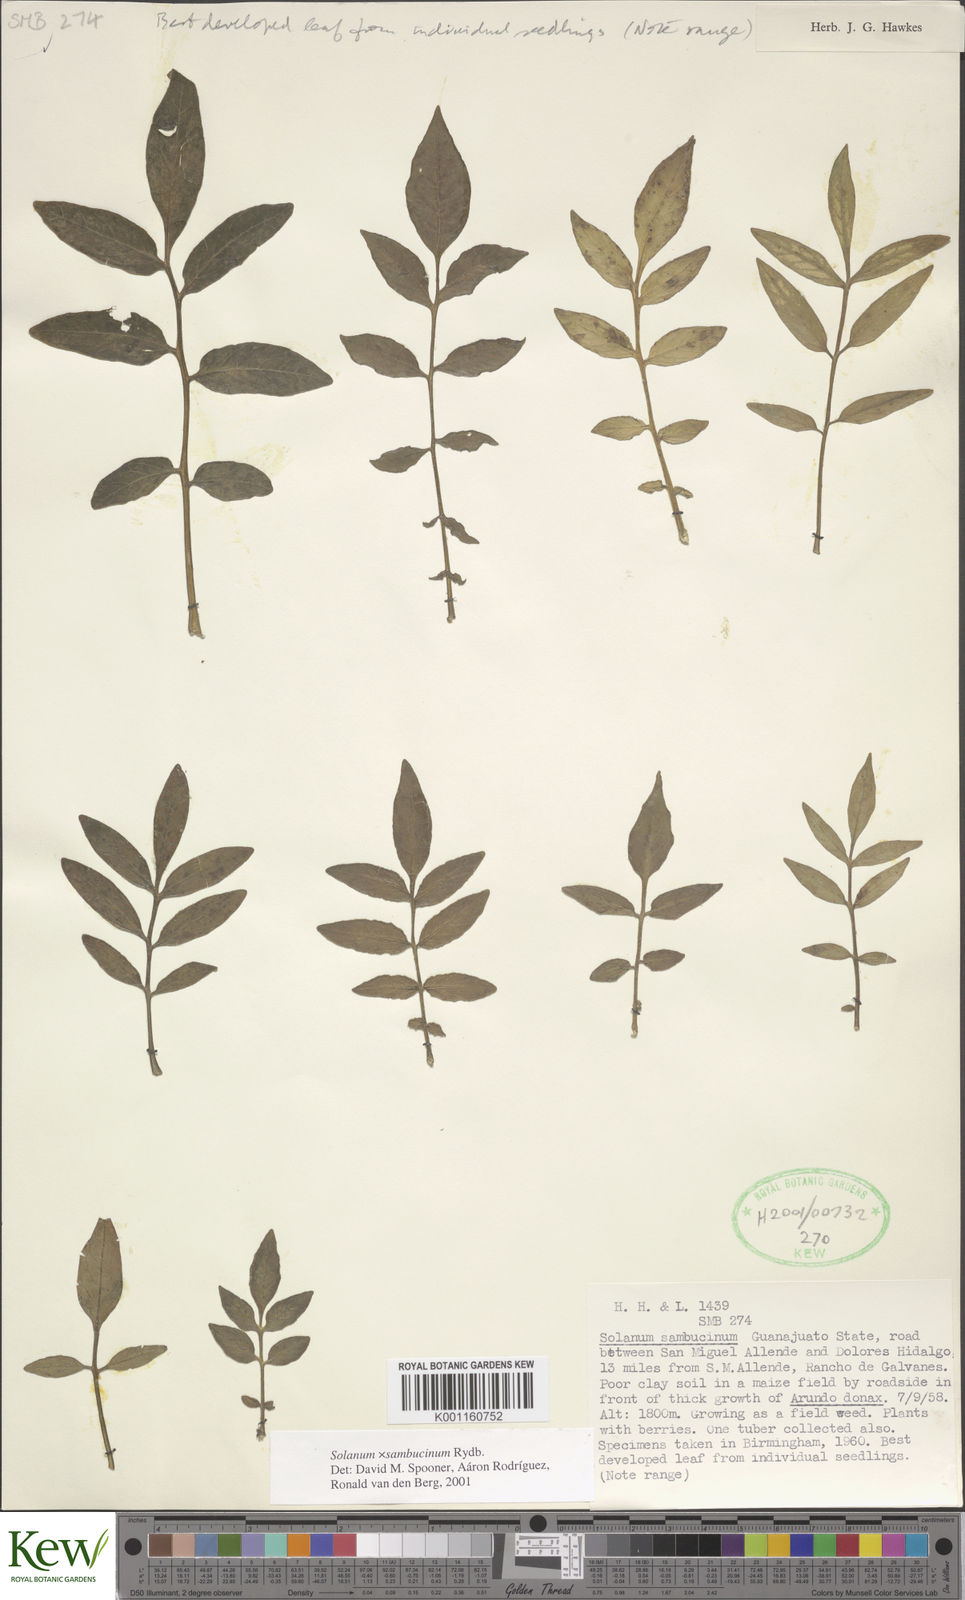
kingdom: Plantae
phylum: Tracheophyta
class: Magnoliopsida
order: Solanales
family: Solanaceae
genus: Solanum
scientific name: Solanum sambucinum
